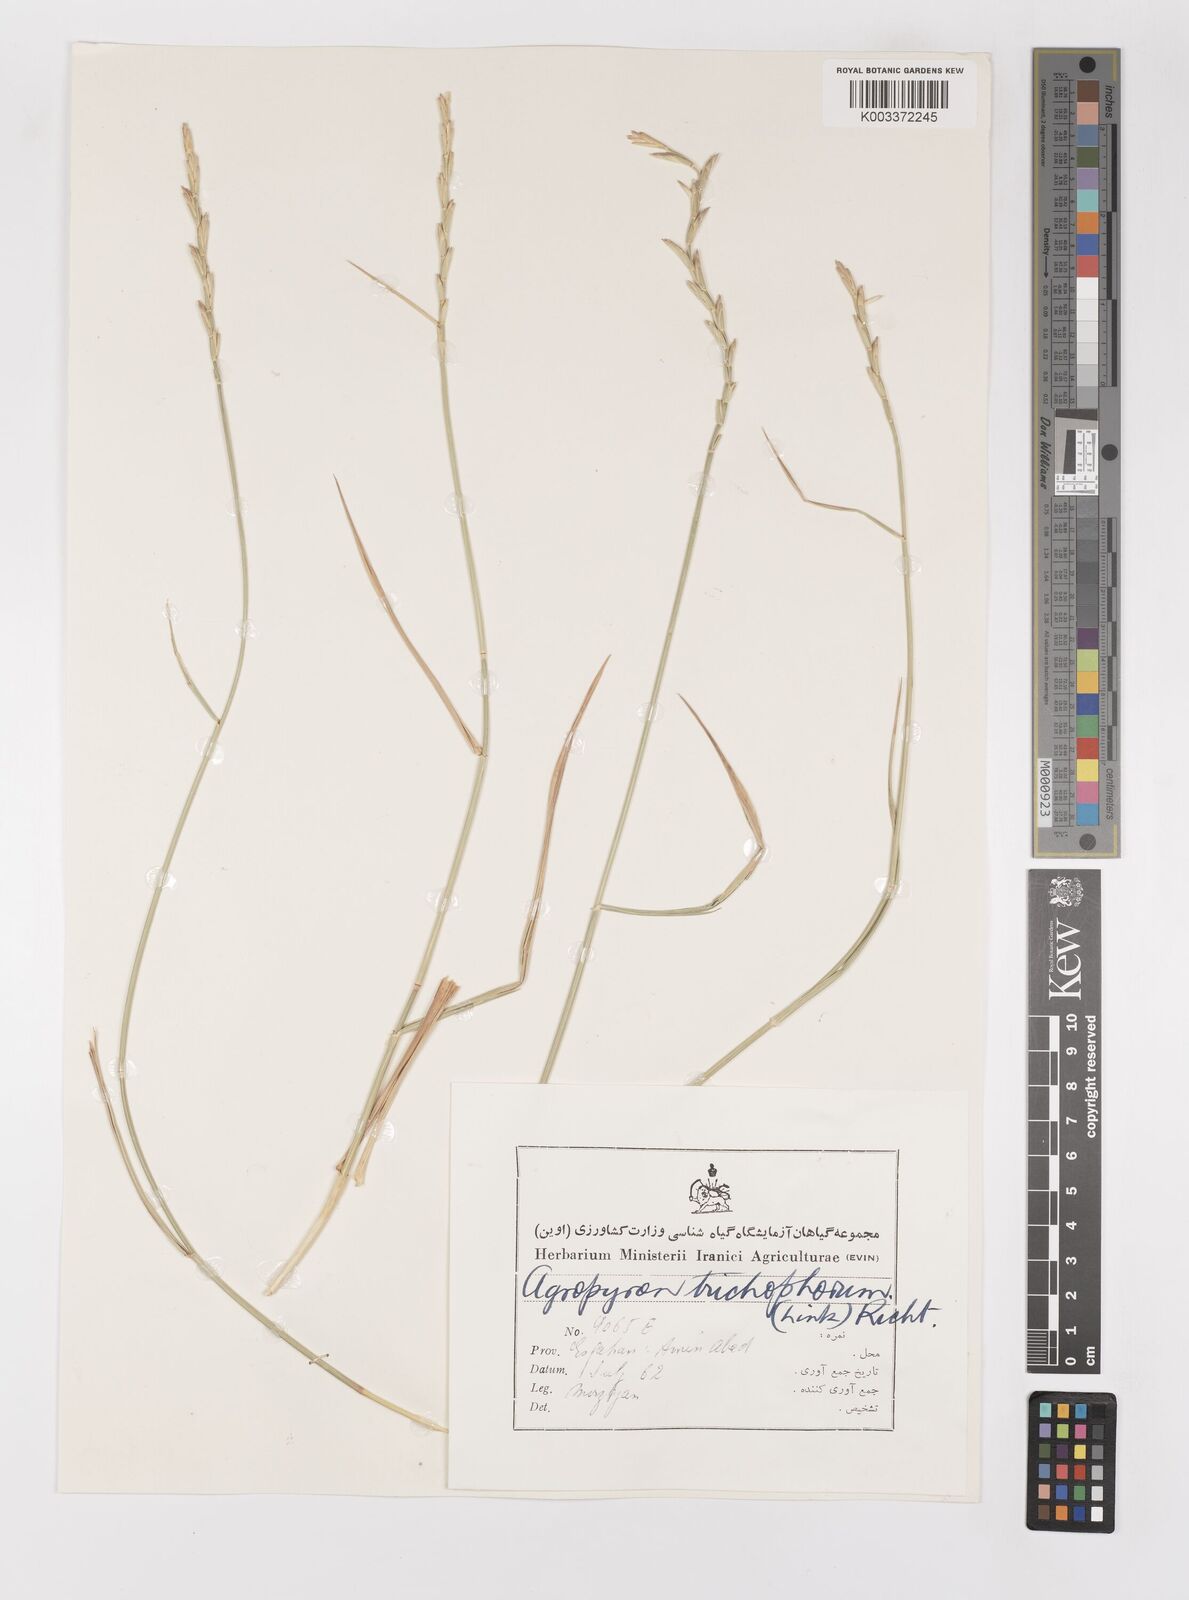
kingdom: Plantae
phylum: Tracheophyta
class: Liliopsida
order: Poales
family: Poaceae
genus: Thinopyrum
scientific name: Thinopyrum intermedium
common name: Intermediate wheatgrass
